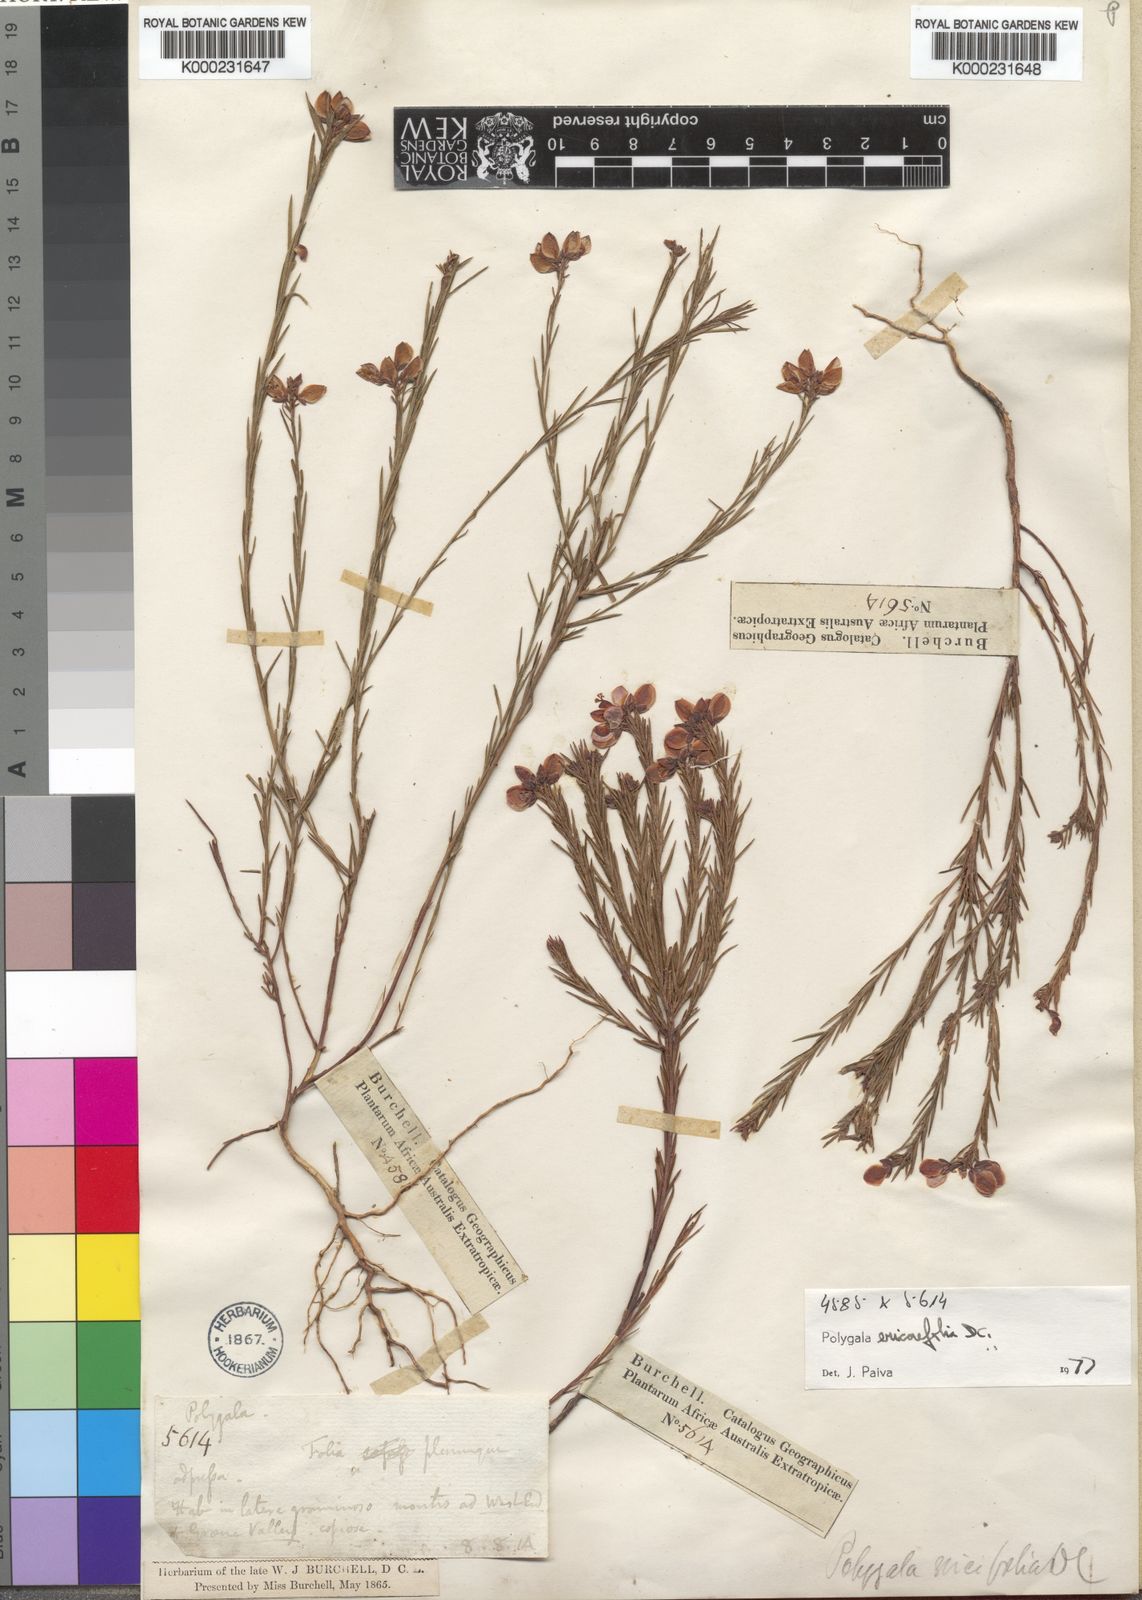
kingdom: Plantae
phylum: Tracheophyta
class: Magnoliopsida
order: Fabales
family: Polygalaceae
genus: Polygala
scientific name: Polygala ericifolia
